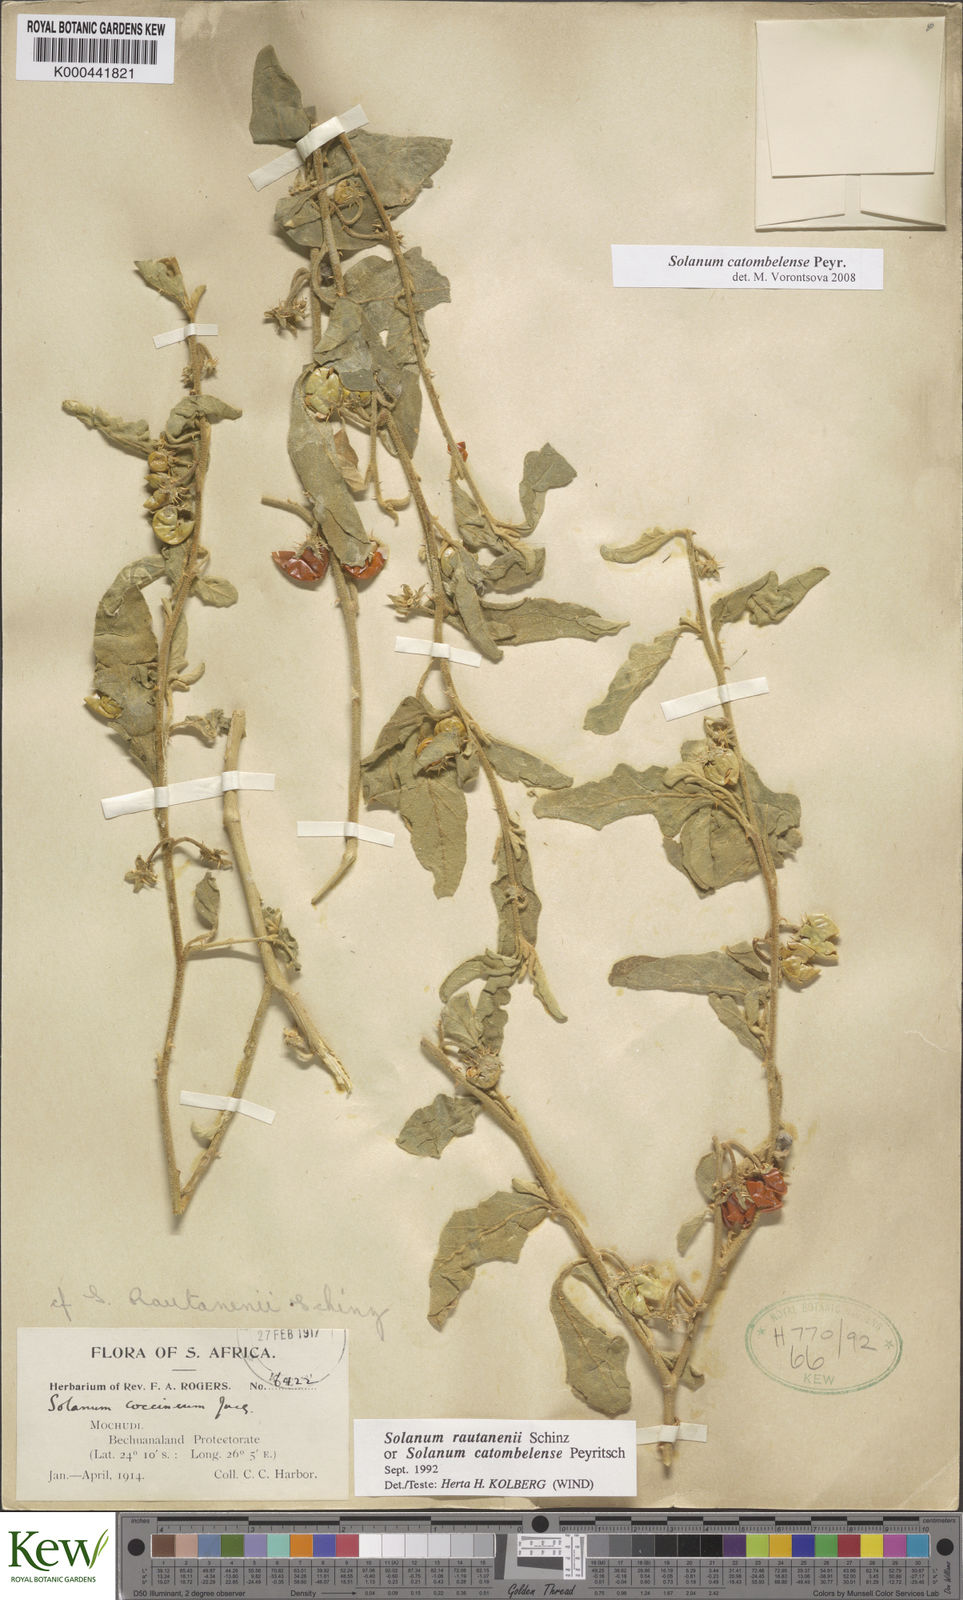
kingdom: Plantae
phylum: Tracheophyta
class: Magnoliopsida
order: Solanales
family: Solanaceae
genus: Solanum
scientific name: Solanum catombelense
